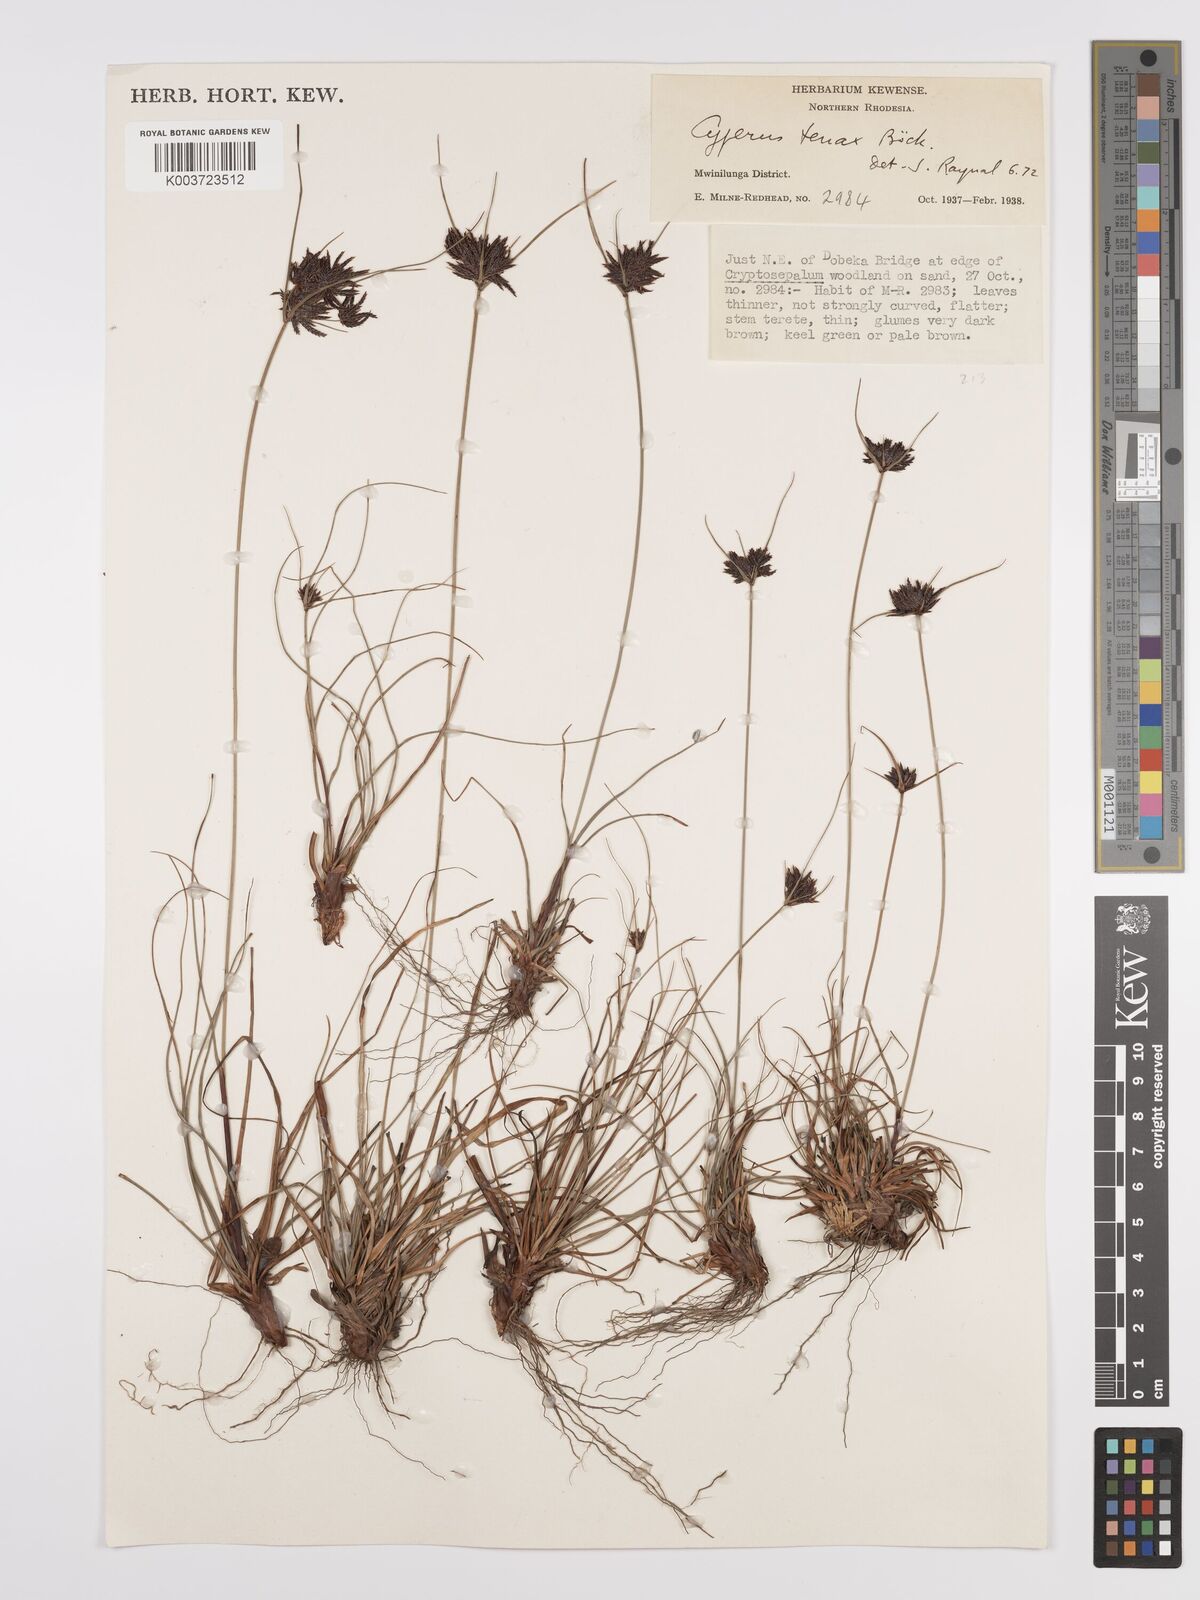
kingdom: Plantae
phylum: Tracheophyta
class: Liliopsida
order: Poales
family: Cyperaceae
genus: Cyperus
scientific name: Cyperus tenax
